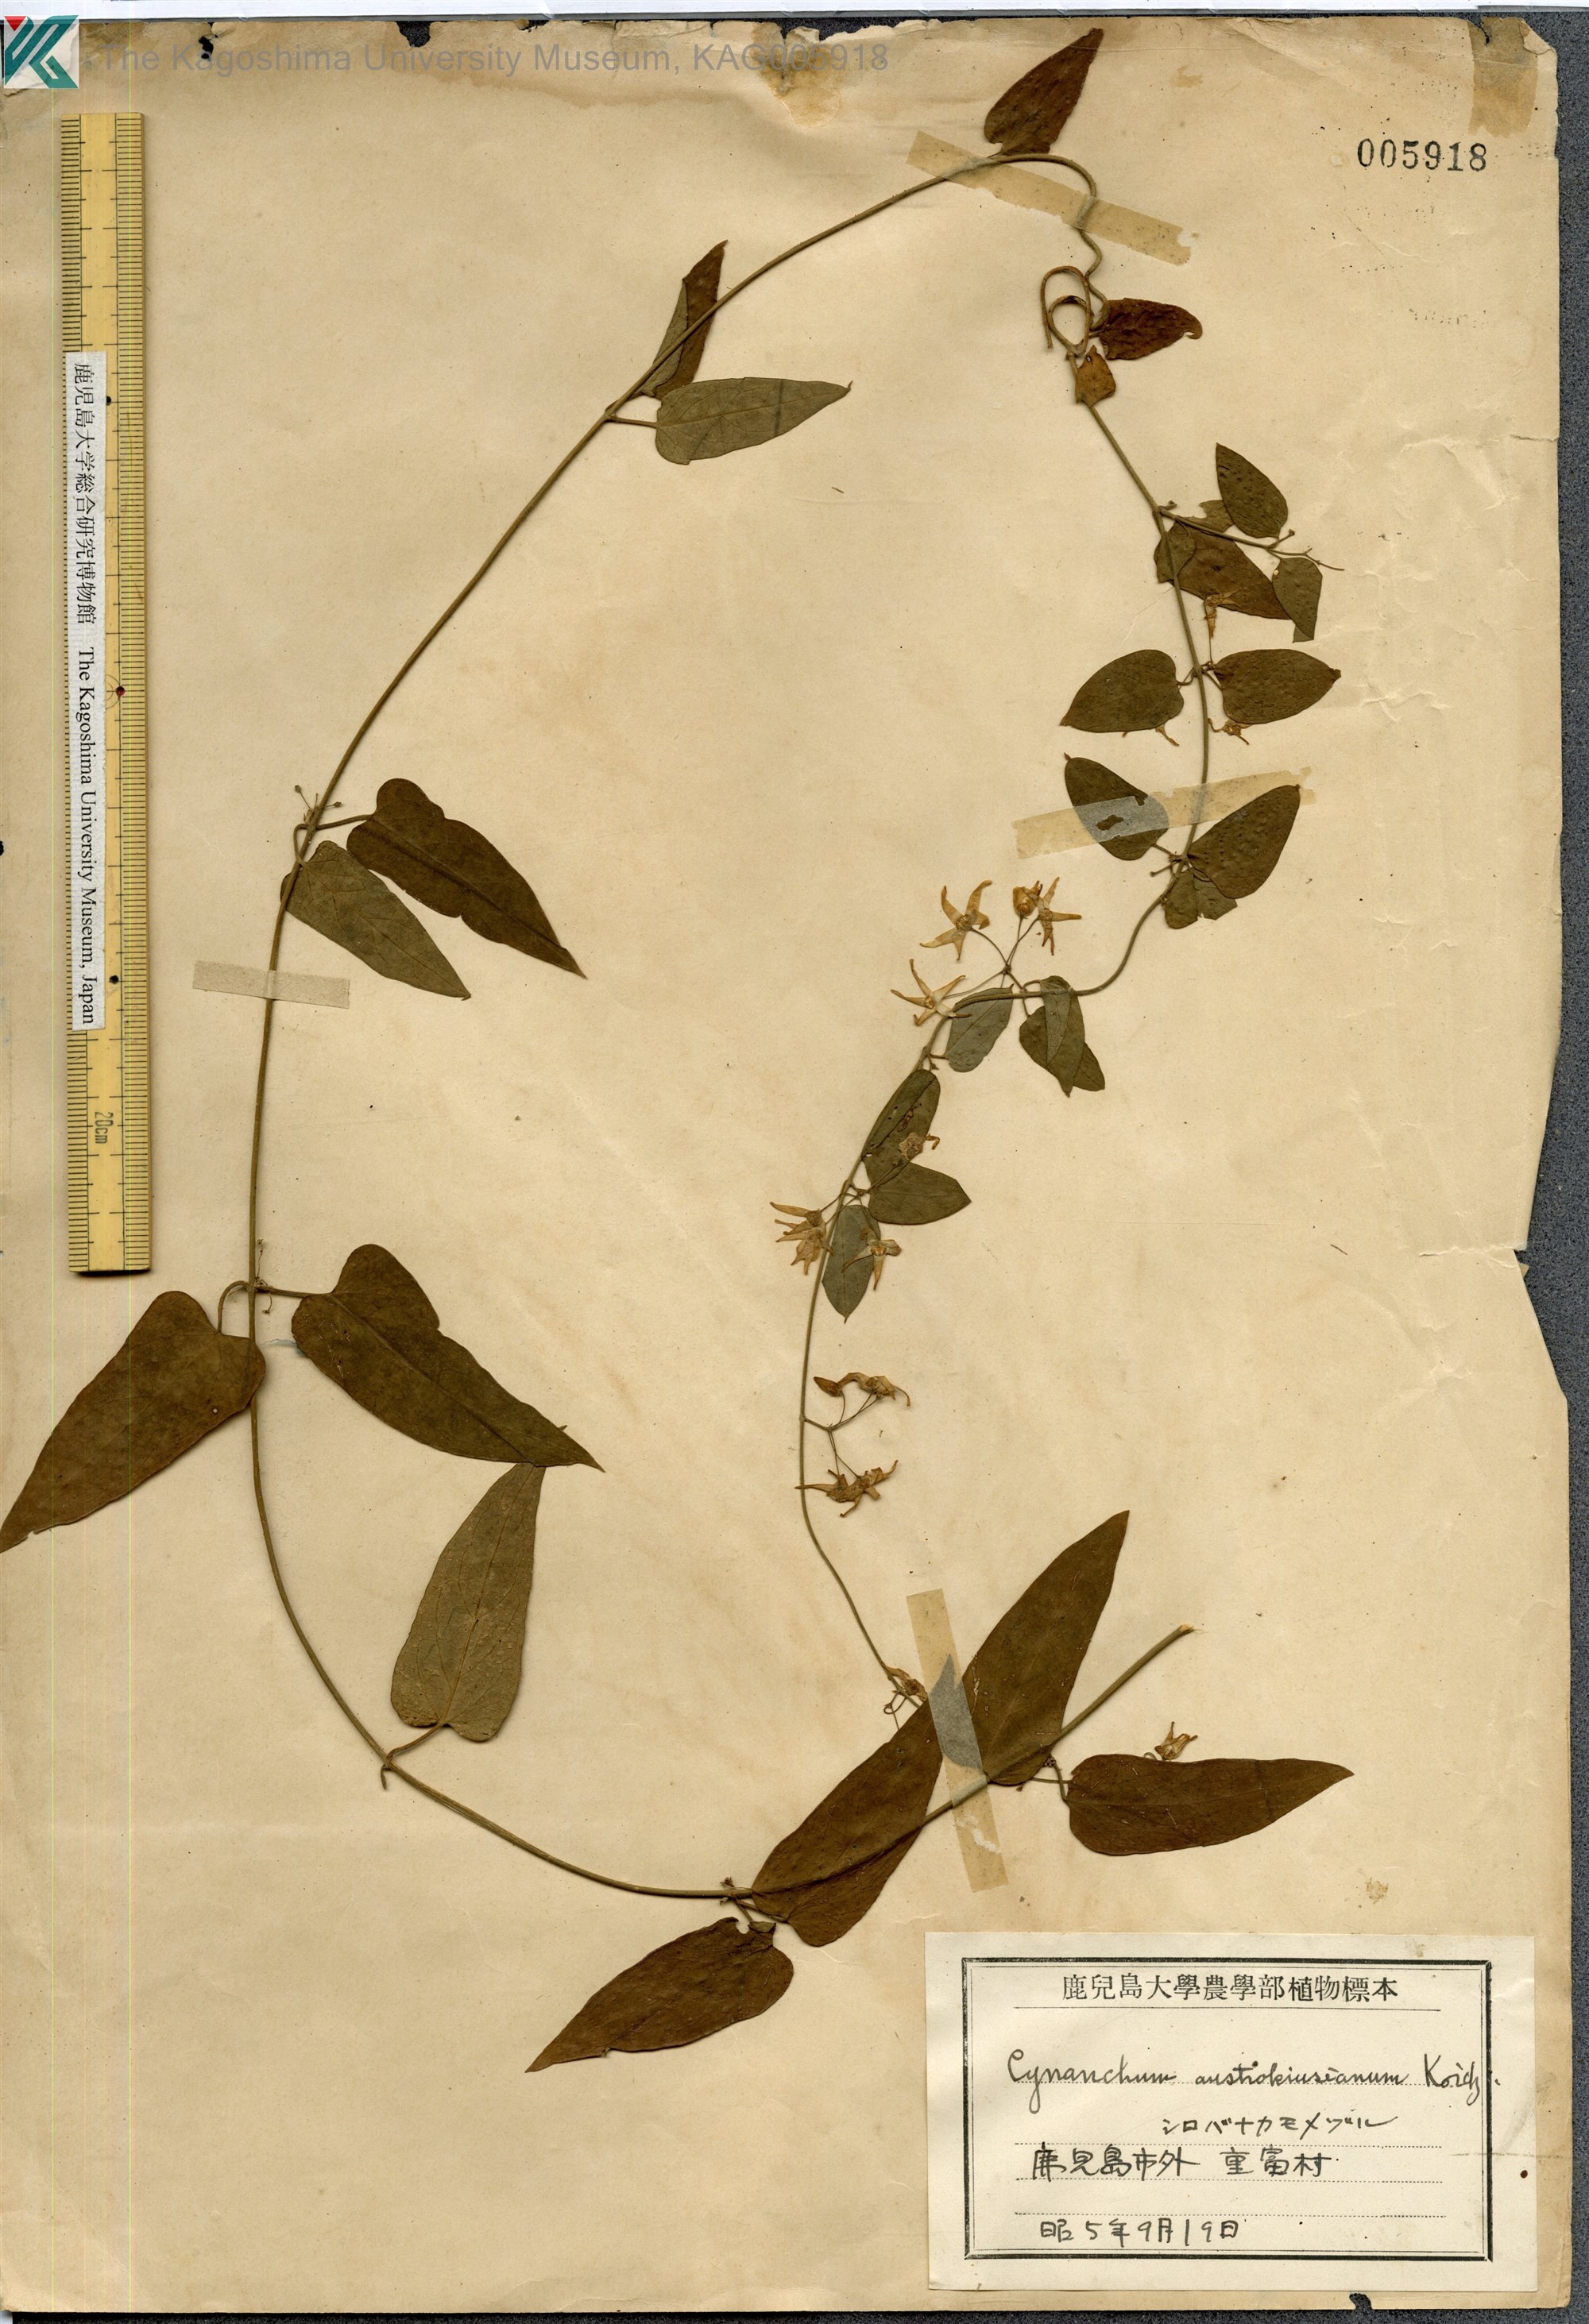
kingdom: Plantae
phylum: Tracheophyta
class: Magnoliopsida
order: Gentianales
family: Apocynaceae
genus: Vincetoxicum
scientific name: Vincetoxicum austrokiusianum
